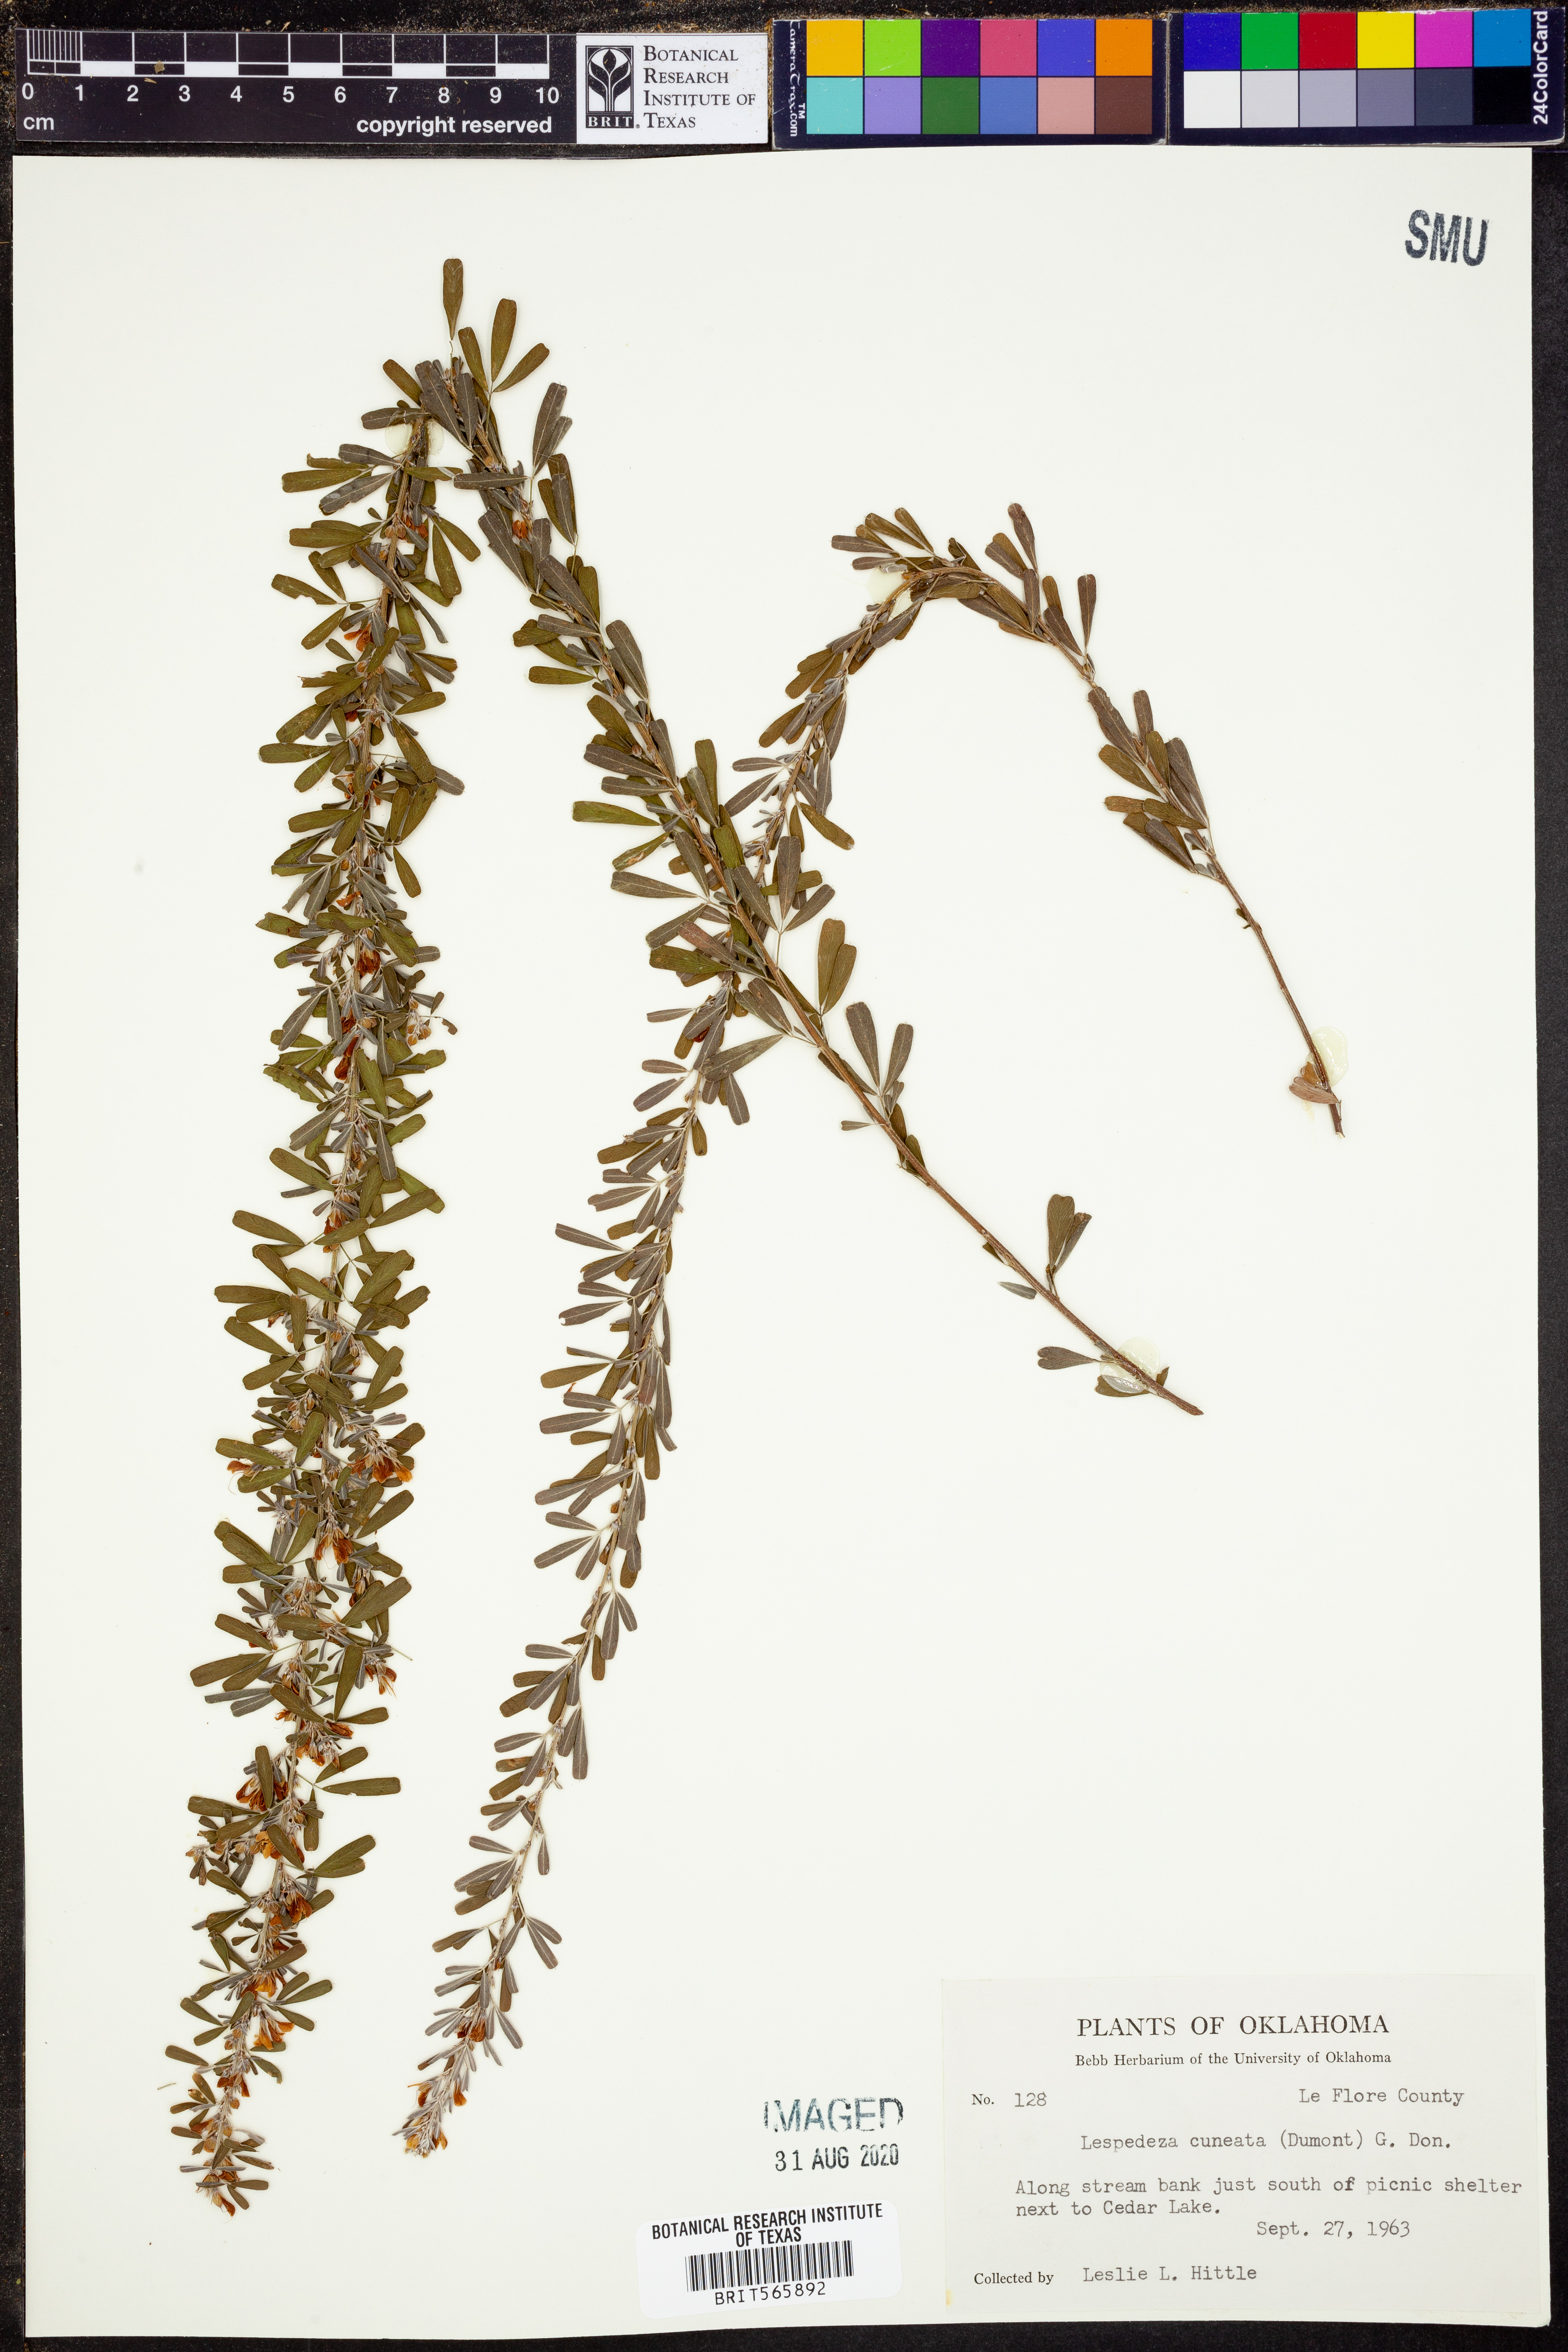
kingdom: Plantae
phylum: Tracheophyta
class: Magnoliopsida
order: Fabales
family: Fabaceae
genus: Lespedeza
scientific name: Lespedeza cuneata
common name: Chinese bush-clover
